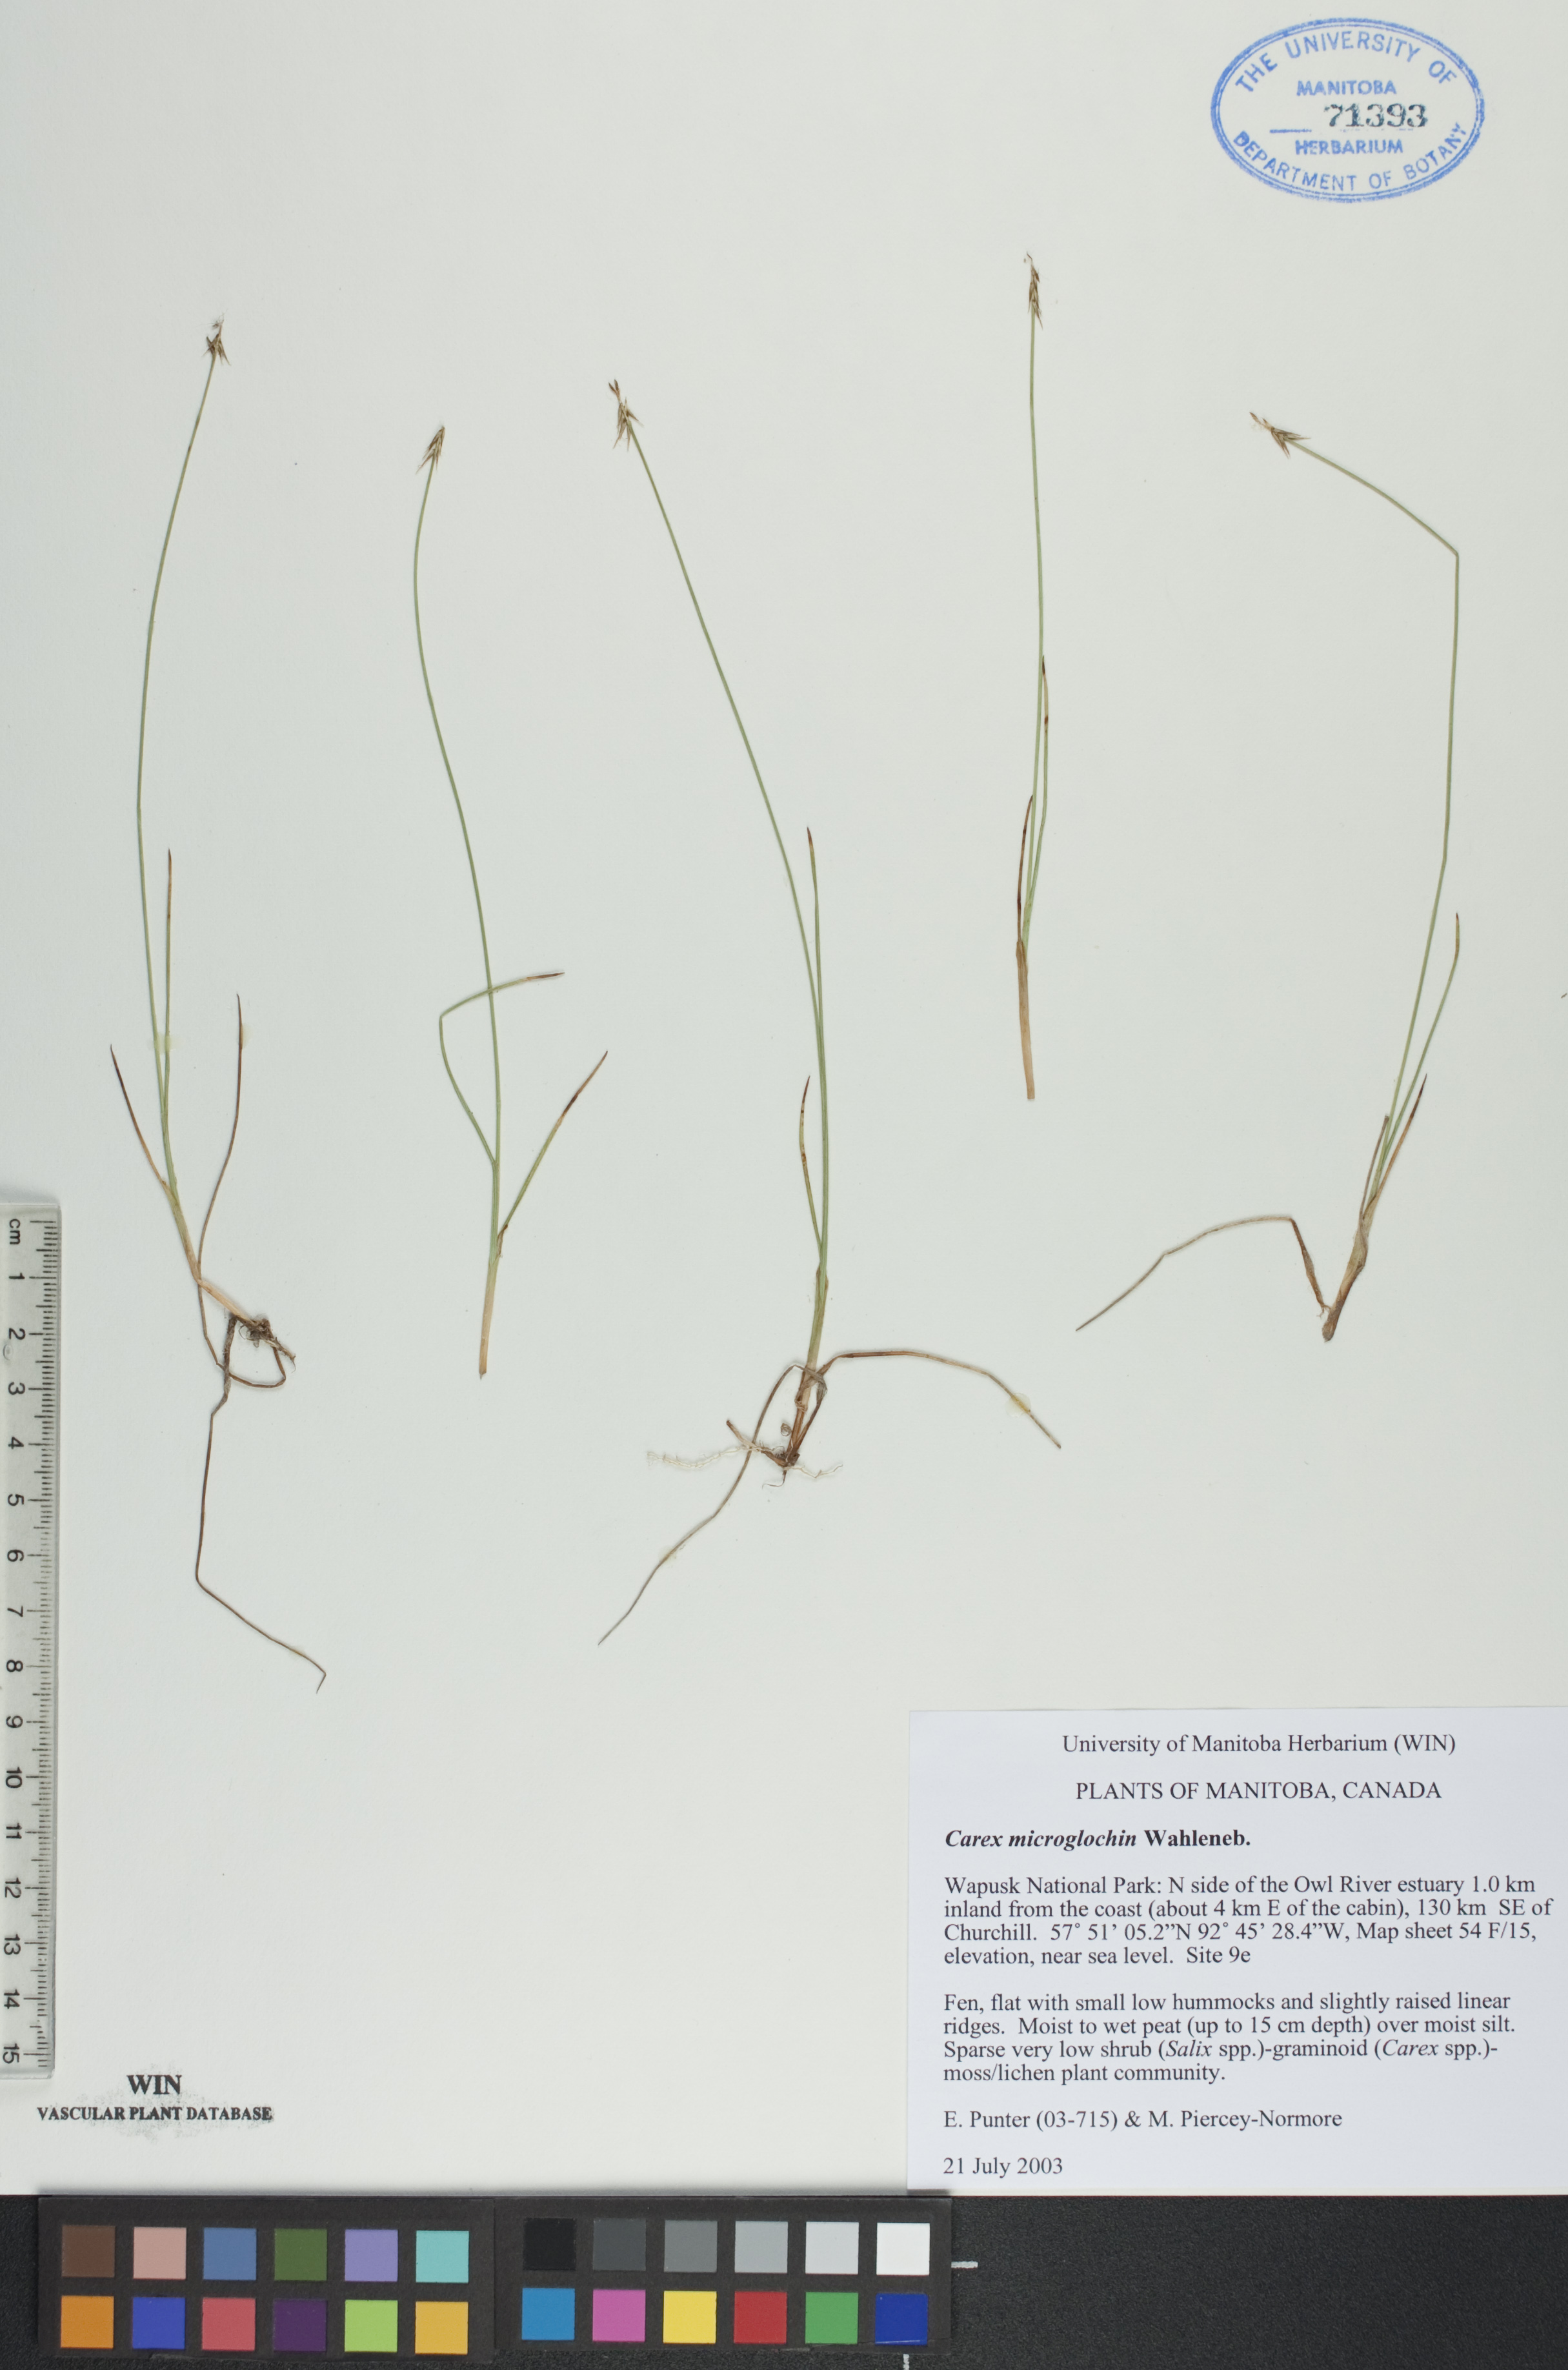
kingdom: Plantae
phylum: Tracheophyta
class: Liliopsida
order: Poales
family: Cyperaceae
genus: Carex
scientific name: Carex microglochin
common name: Bristle sedge
